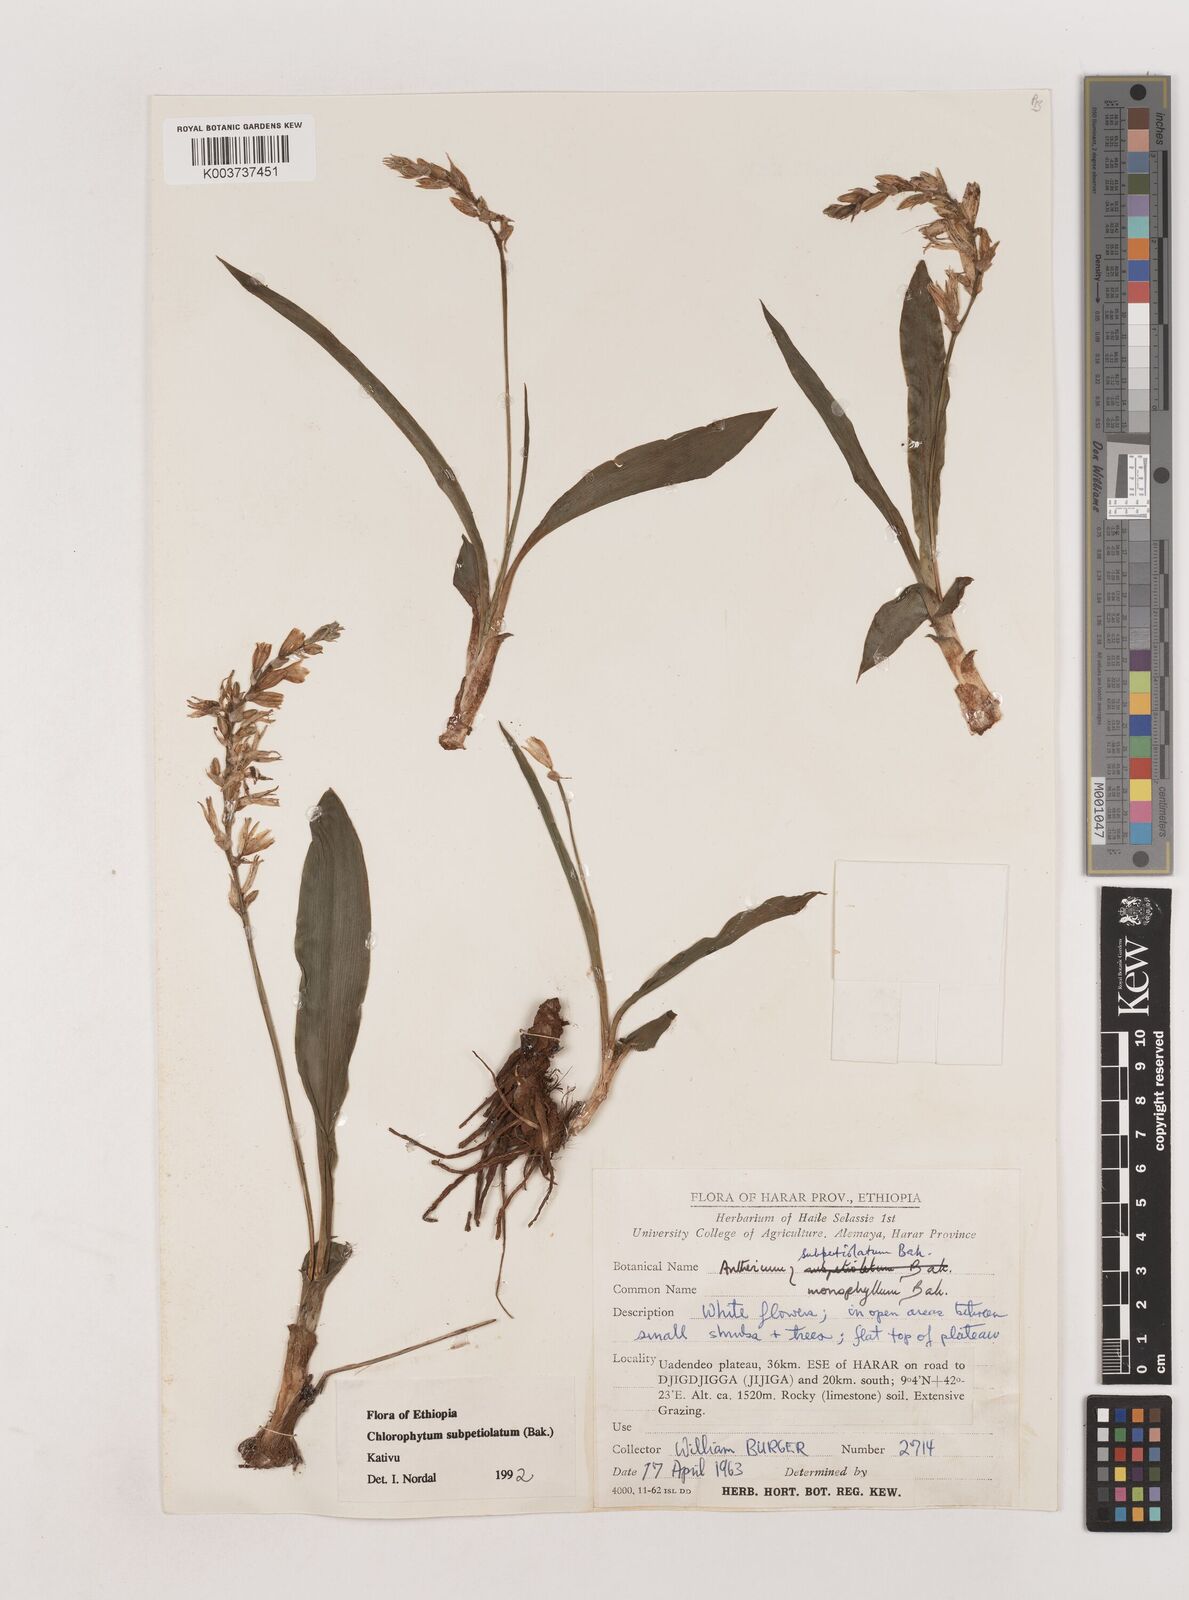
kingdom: Plantae
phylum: Tracheophyta
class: Liliopsida
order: Asparagales
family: Asparagaceae
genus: Chlorophytum
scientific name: Chlorophytum subpetiolatum
